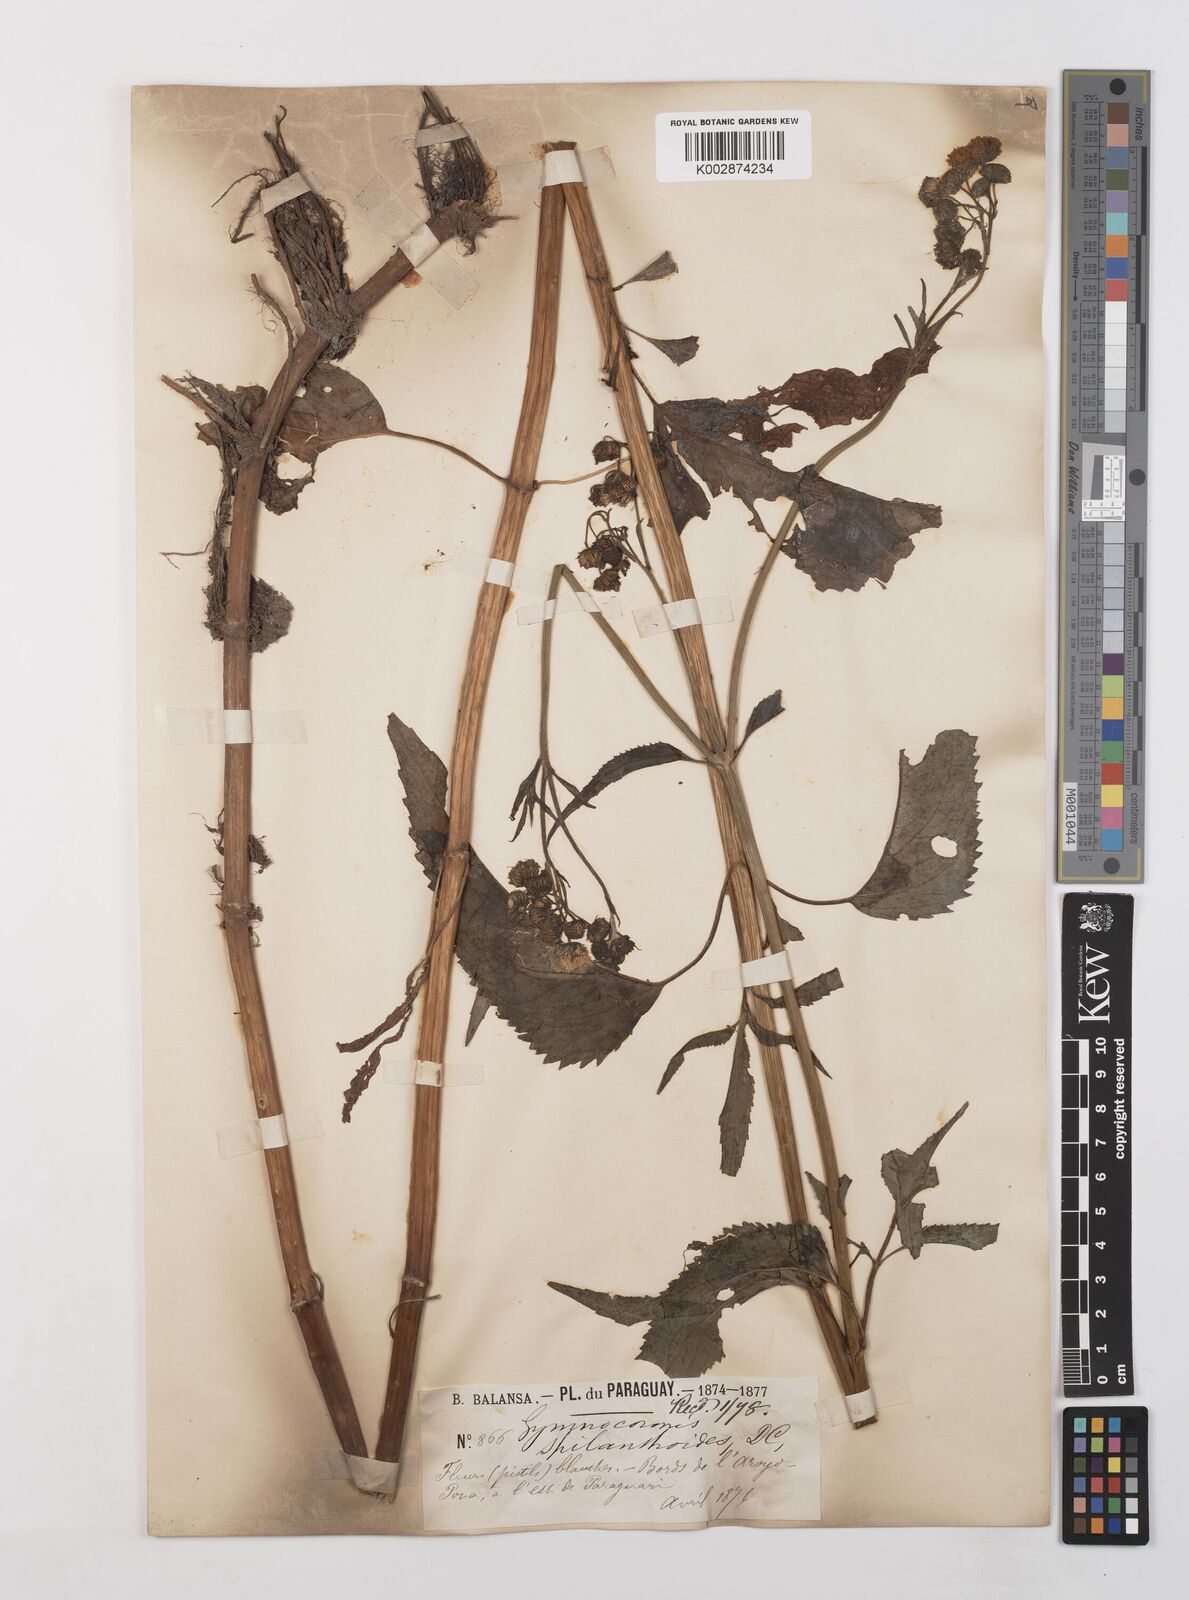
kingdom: Plantae
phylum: Tracheophyta
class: Magnoliopsida
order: Asterales
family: Asteraceae
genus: Gymnocoronis
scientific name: Gymnocoronis spilanthoides
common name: Senegal teaplant
